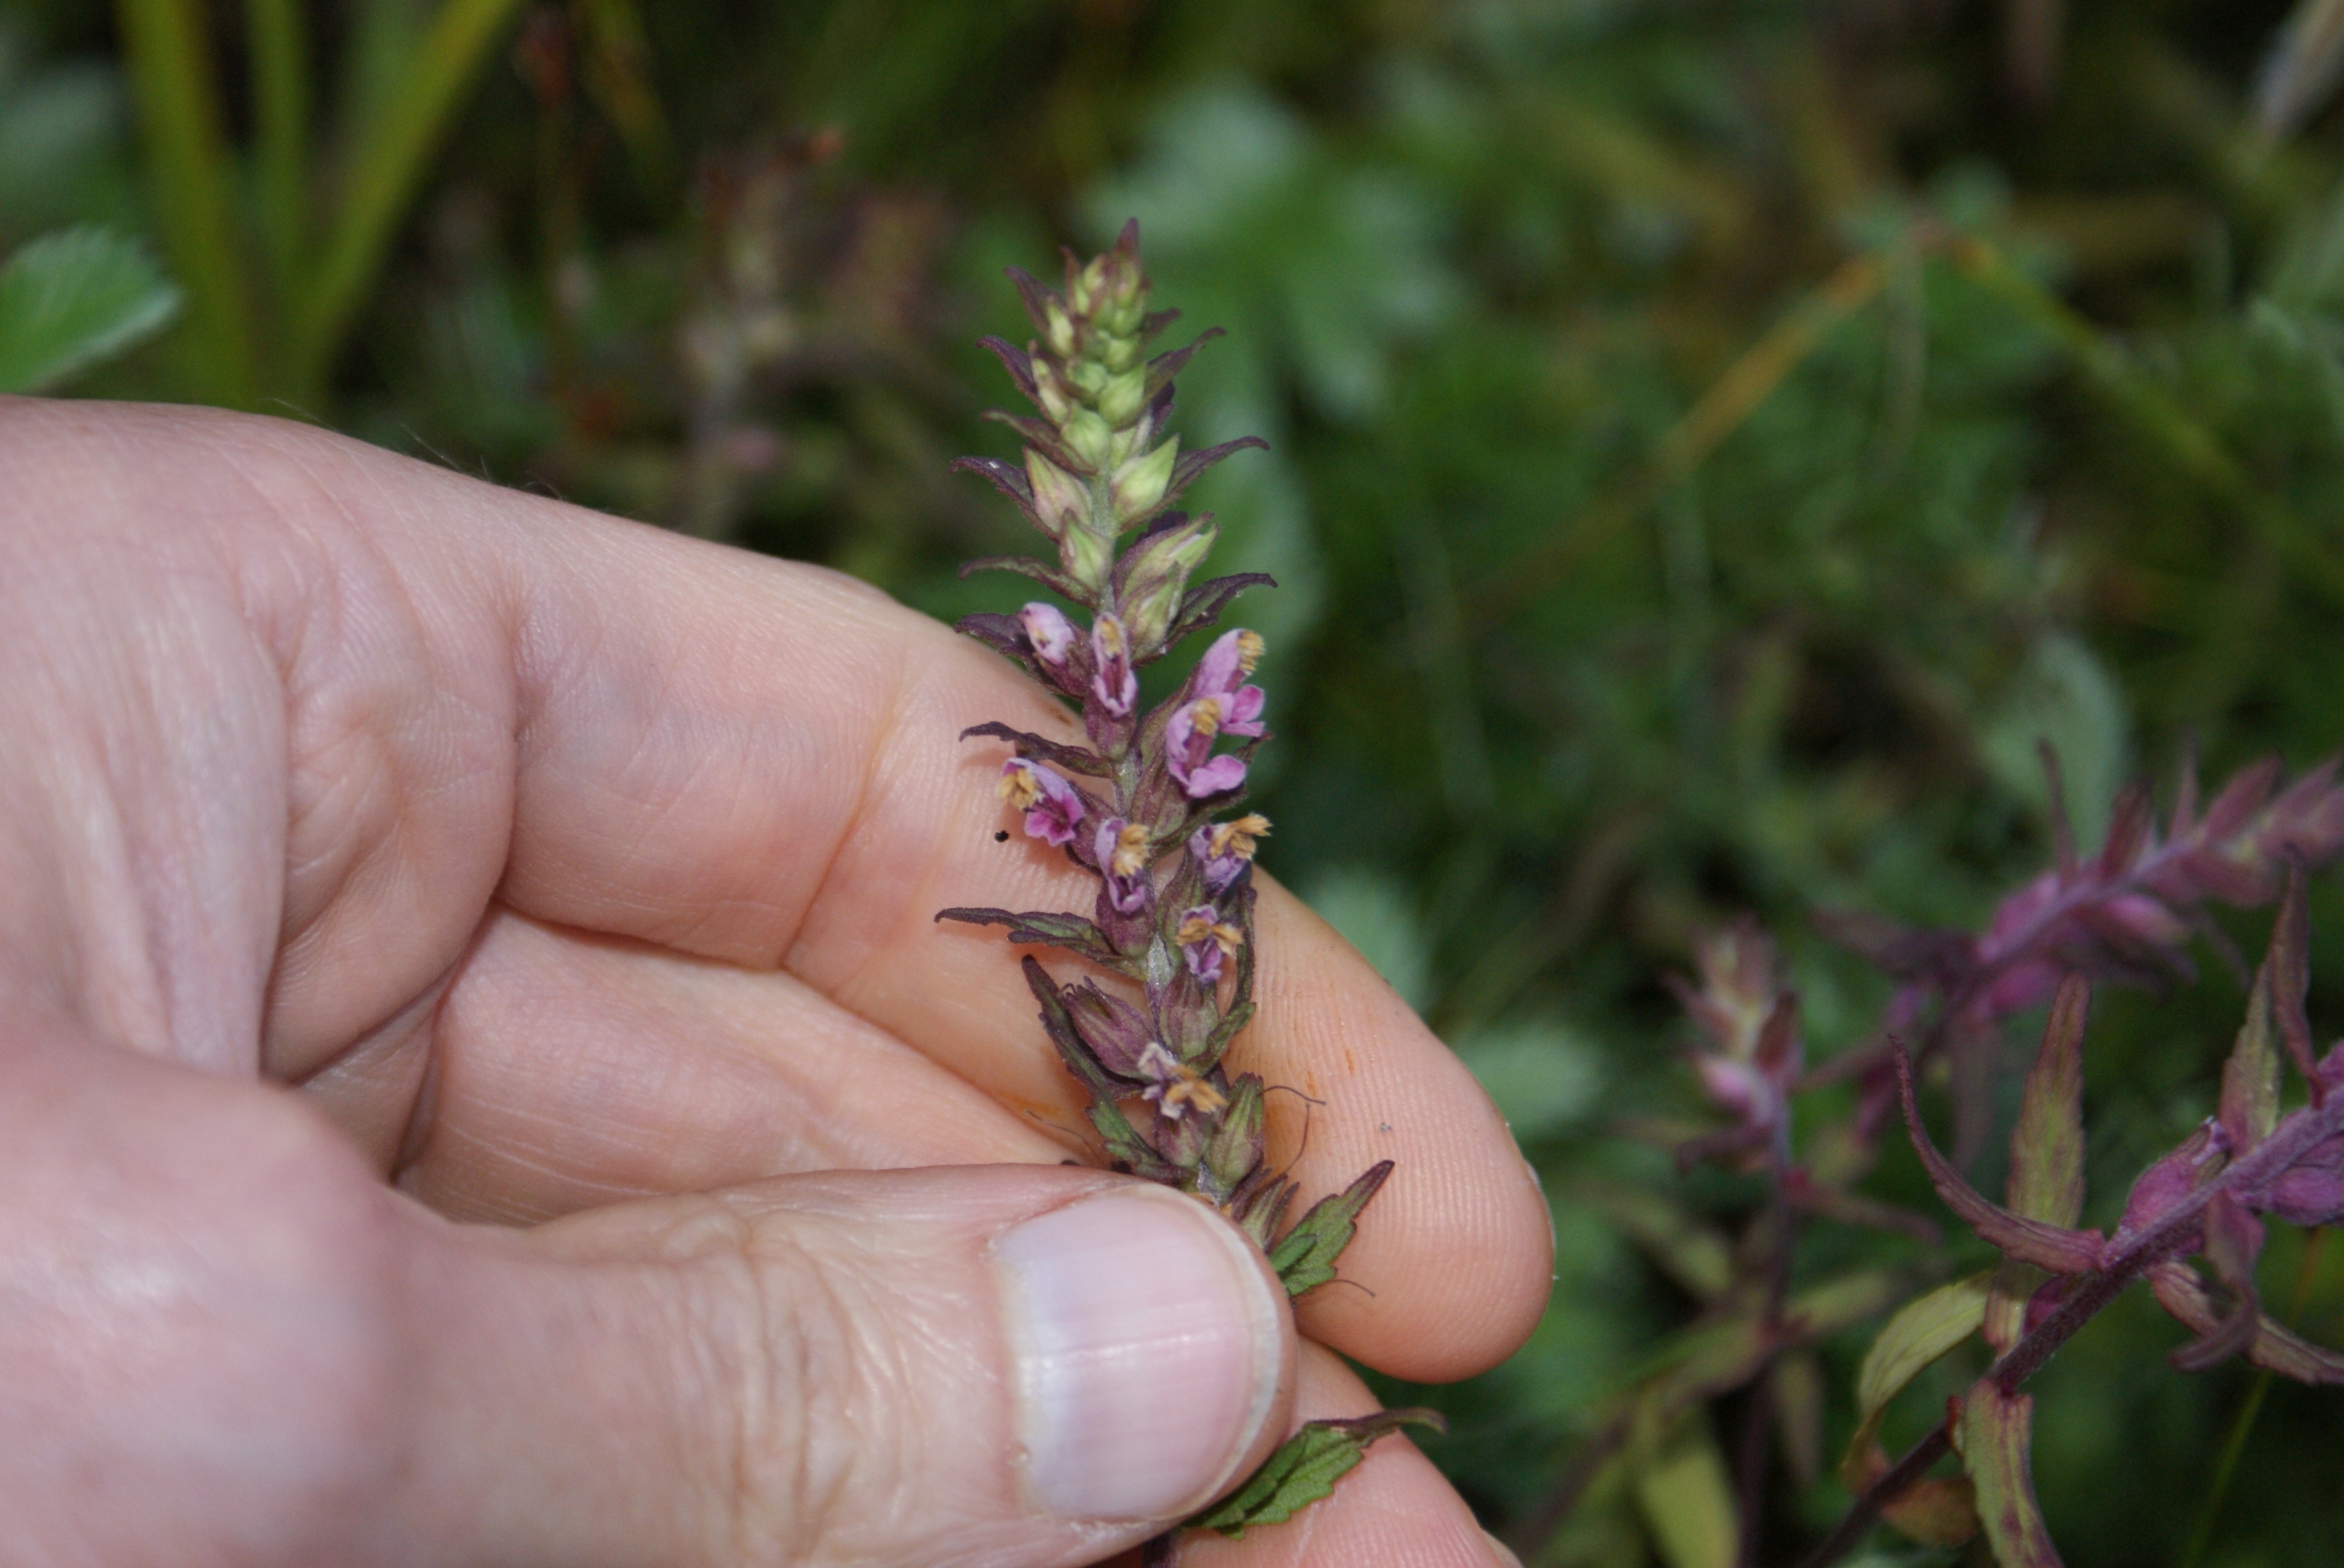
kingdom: Plantae
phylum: Tracheophyta
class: Magnoliopsida
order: Lamiales
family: Orobanchaceae
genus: Odontites
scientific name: Odontites vulgaris
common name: Høst-rødtop
